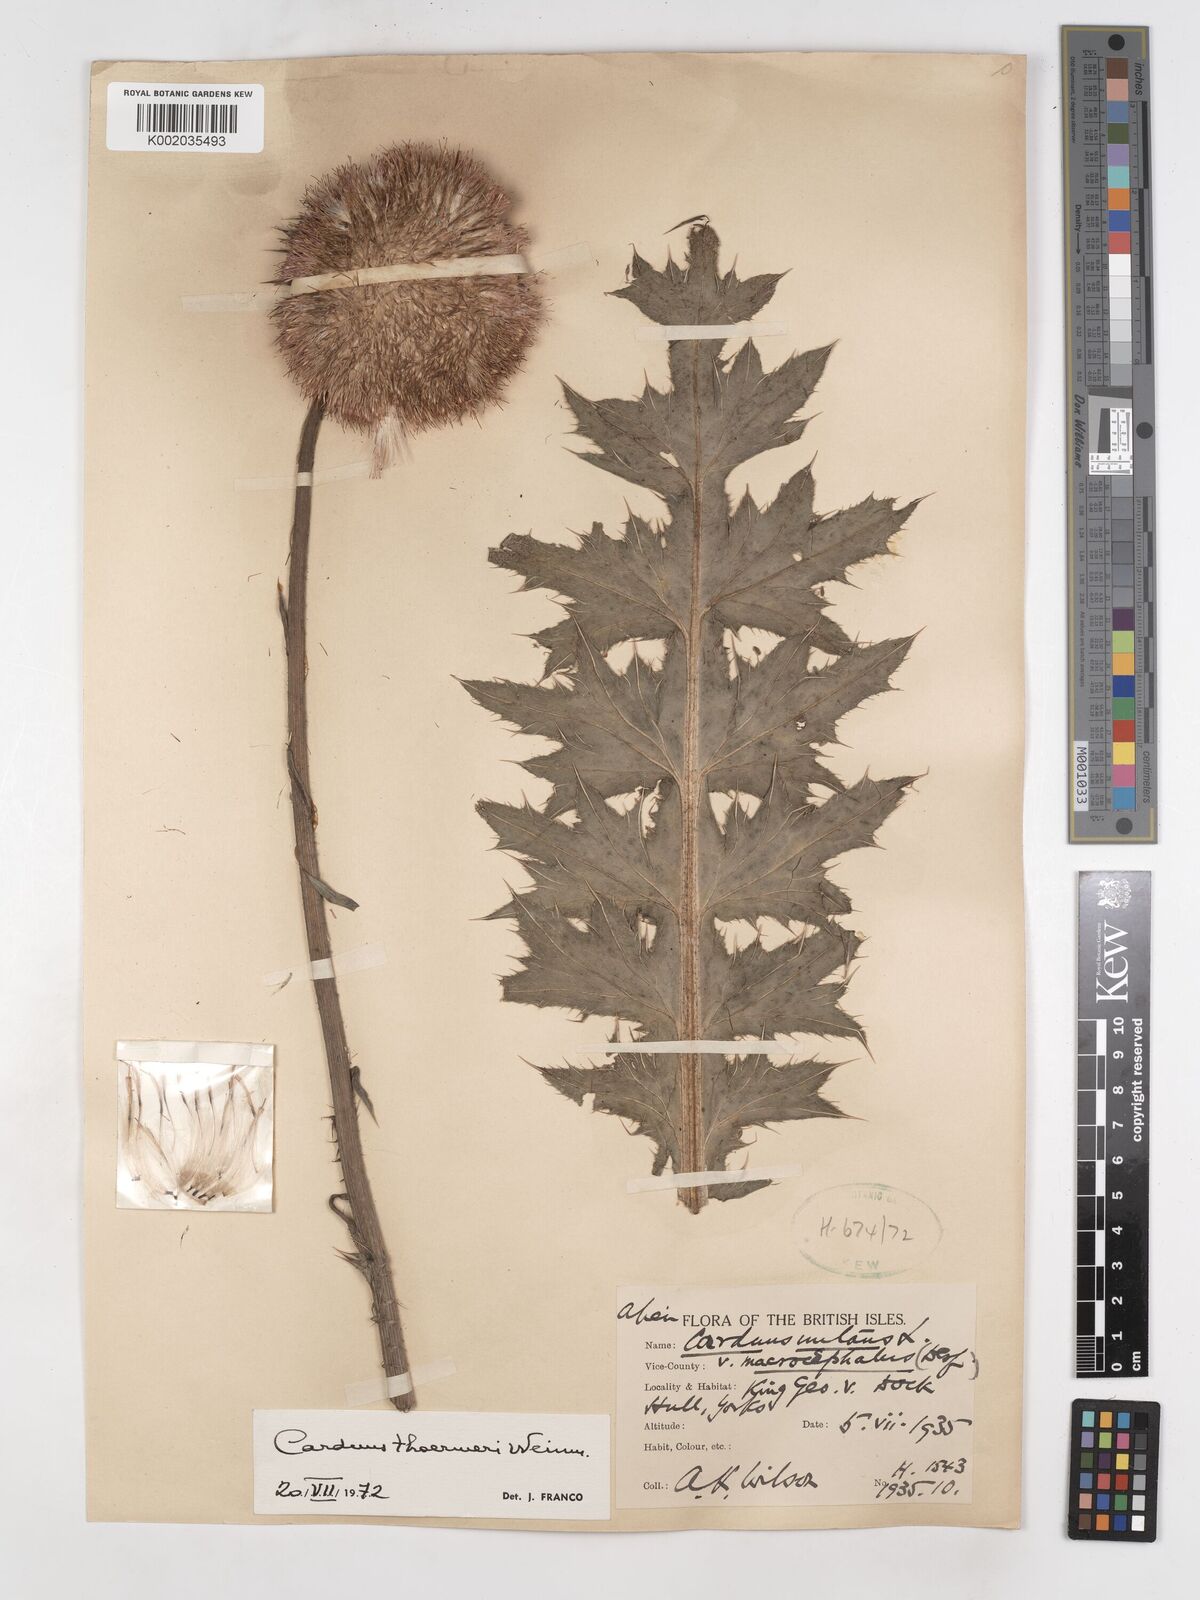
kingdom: Plantae
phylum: Tracheophyta
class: Magnoliopsida
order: Asterales
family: Asteraceae
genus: Carduus
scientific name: Carduus nutans
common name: Musk thistle
